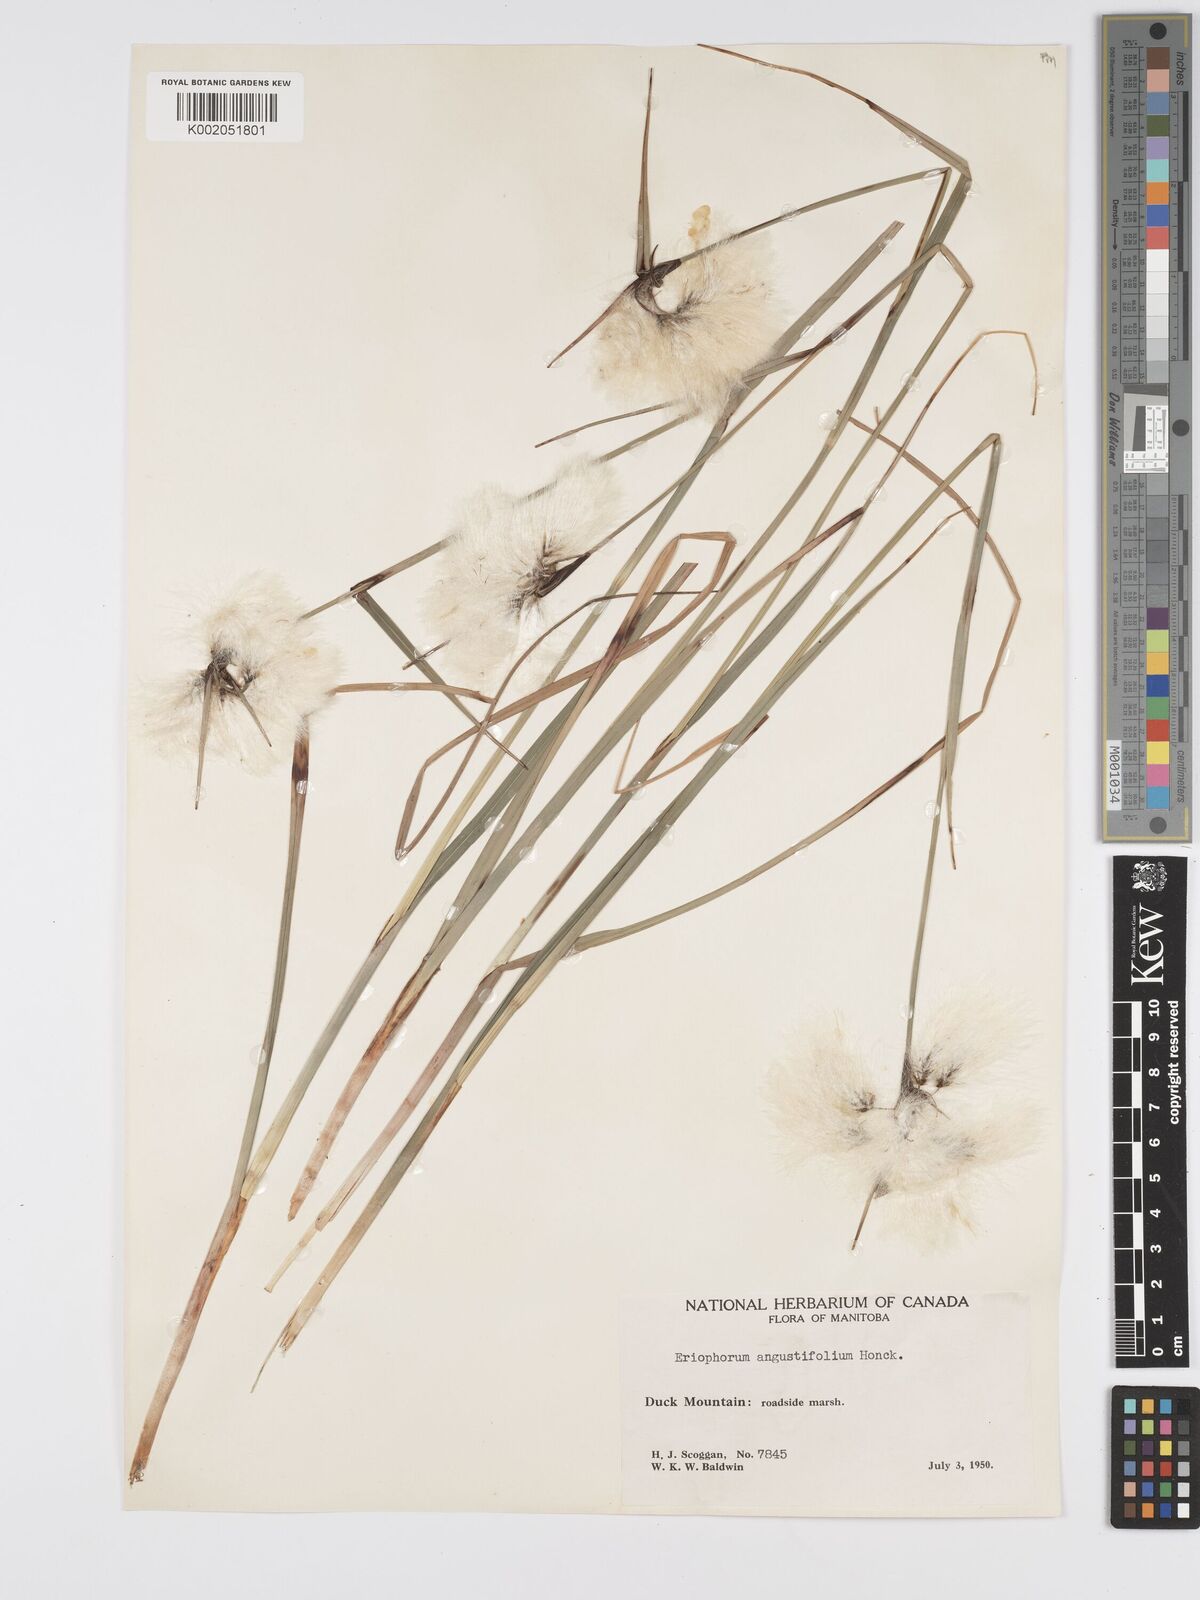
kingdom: Plantae
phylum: Tracheophyta
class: Liliopsida
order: Poales
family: Cyperaceae
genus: Eriophorum
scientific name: Eriophorum angustifolium
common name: Common cottongrass
